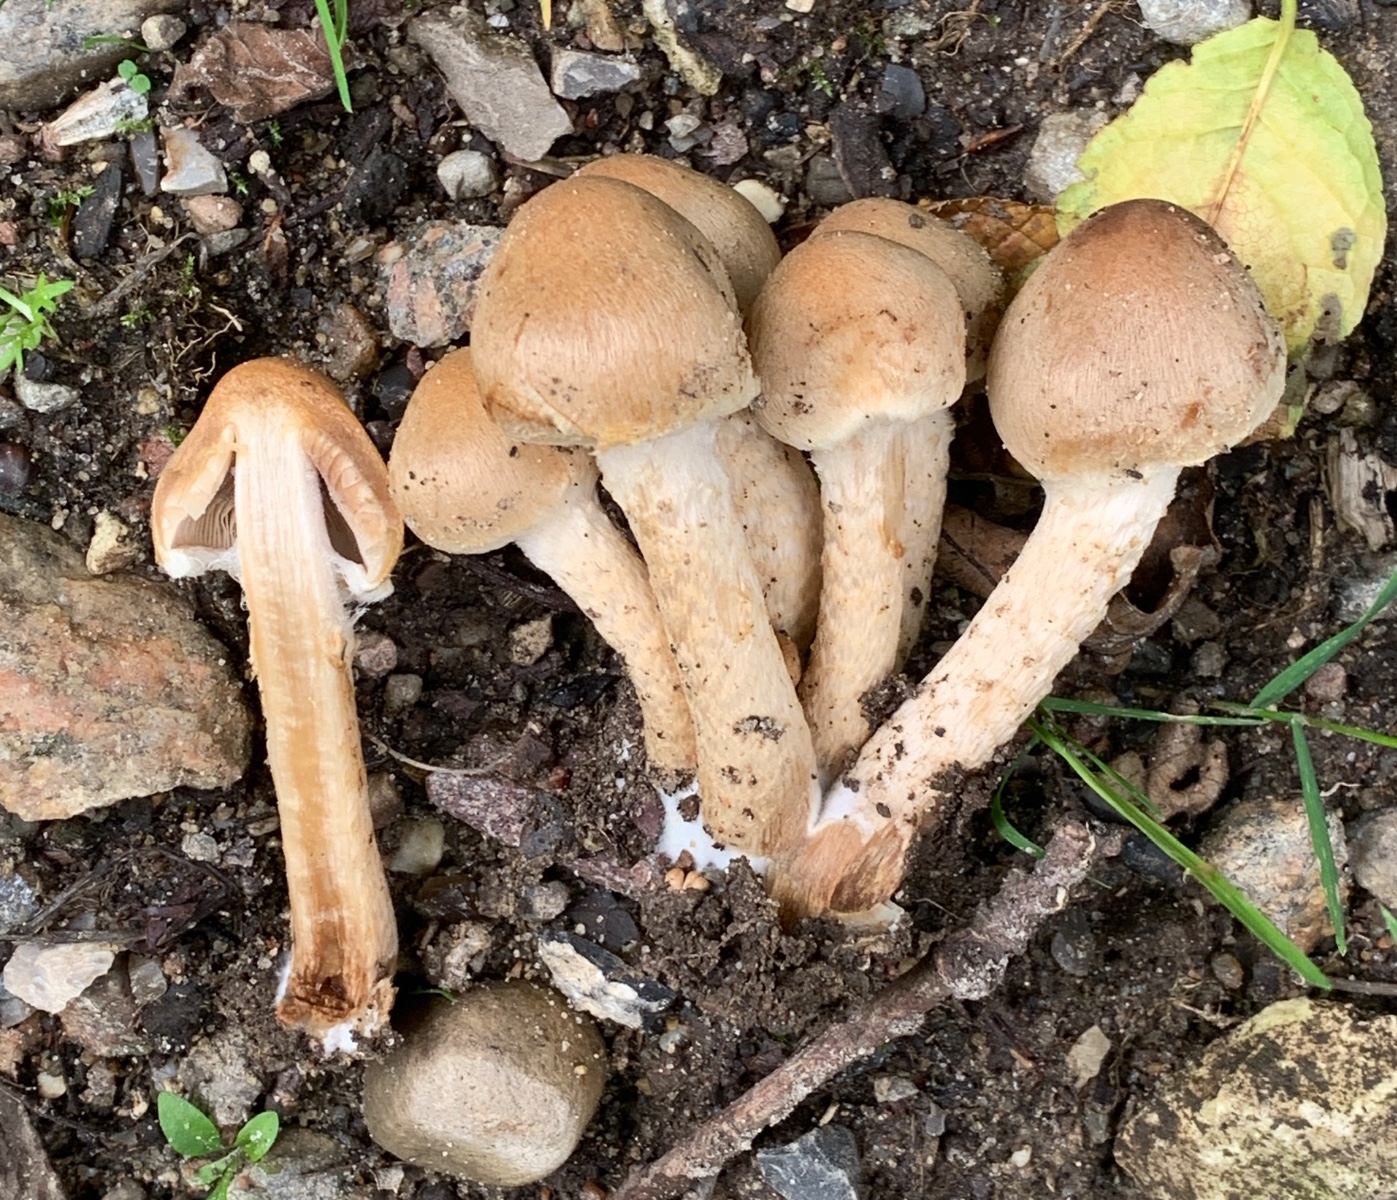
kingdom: Fungi
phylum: Basidiomycota
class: Agaricomycetes
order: Agaricales
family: Psathyrellaceae
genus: Lacrymaria
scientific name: Lacrymaria lacrymabunda
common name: grædende mørkhat
